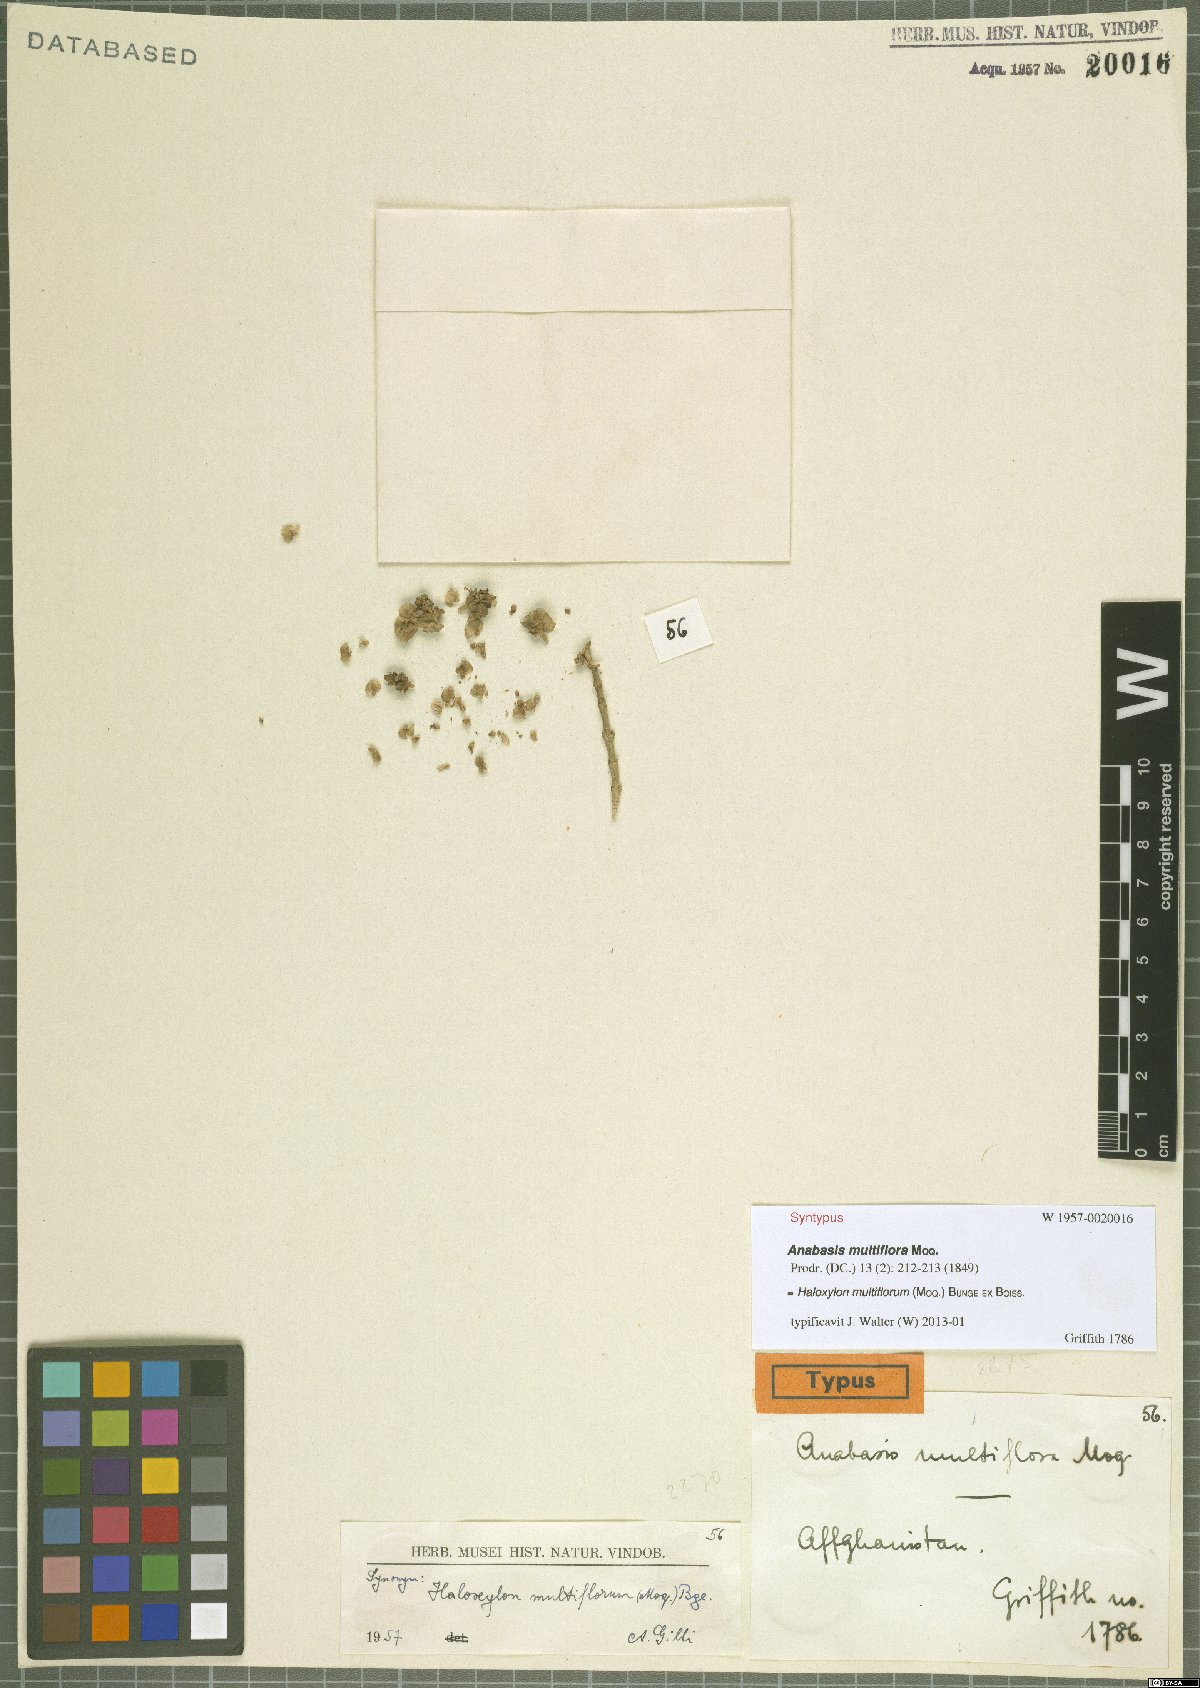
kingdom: Plantae
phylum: Tracheophyta
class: Magnoliopsida
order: Caryophyllales
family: Amaranthaceae
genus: Haloxylon
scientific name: Haloxylon multiflorum
